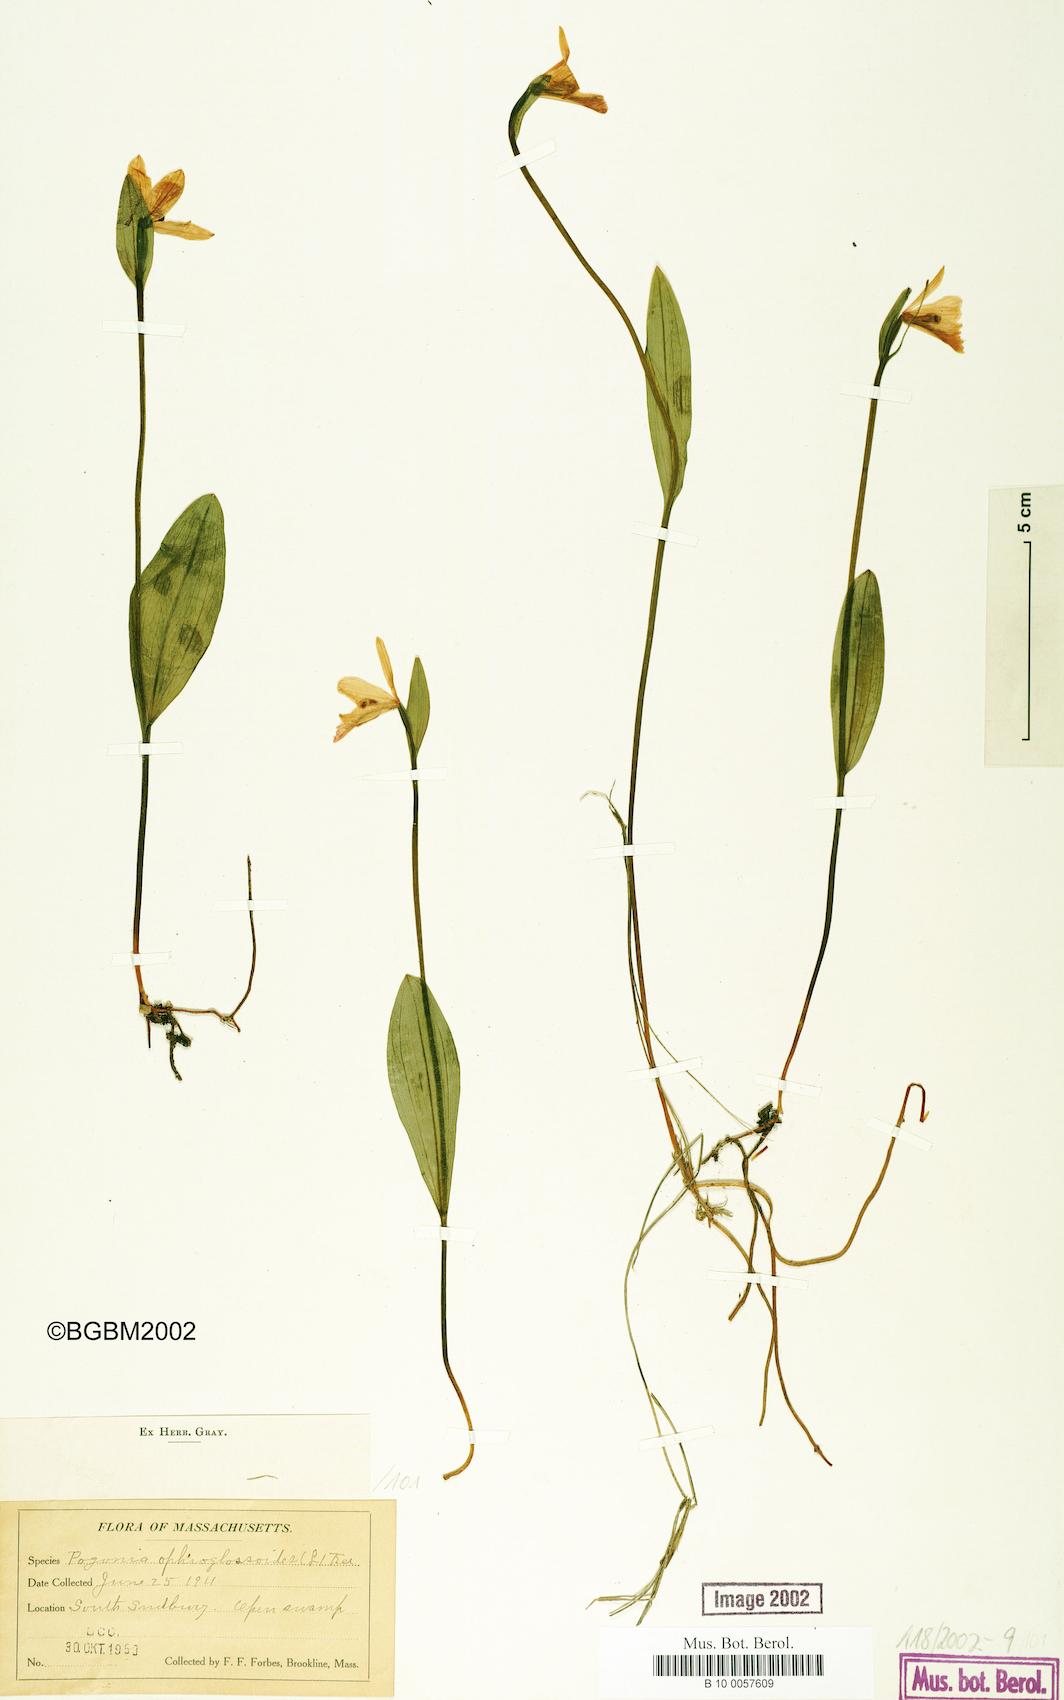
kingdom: Plantae
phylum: Tracheophyta
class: Liliopsida
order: Asparagales
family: Orchidaceae
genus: Pogonia
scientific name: Pogonia ophioglossoides
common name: Rose pogonia
